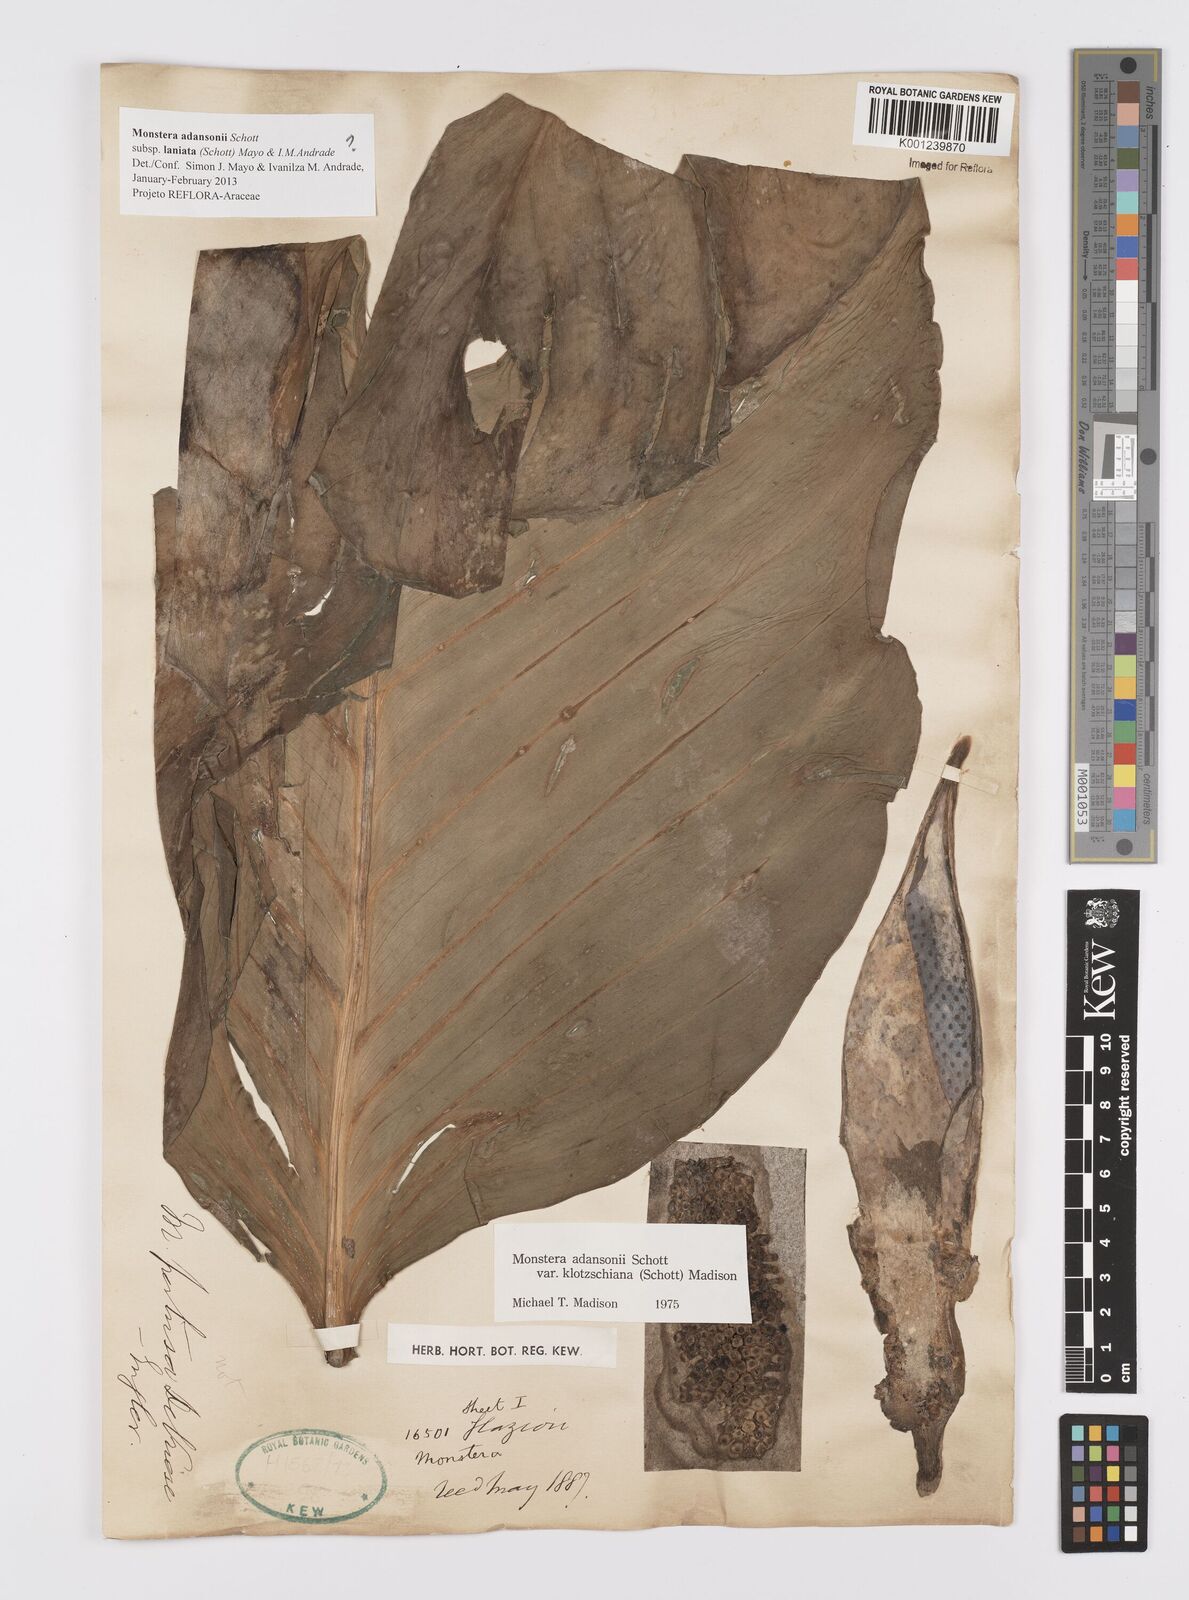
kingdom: Plantae
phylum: Tracheophyta
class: Liliopsida
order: Alismatales
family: Araceae
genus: Monstera
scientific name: Monstera adansonii
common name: Tarovine
